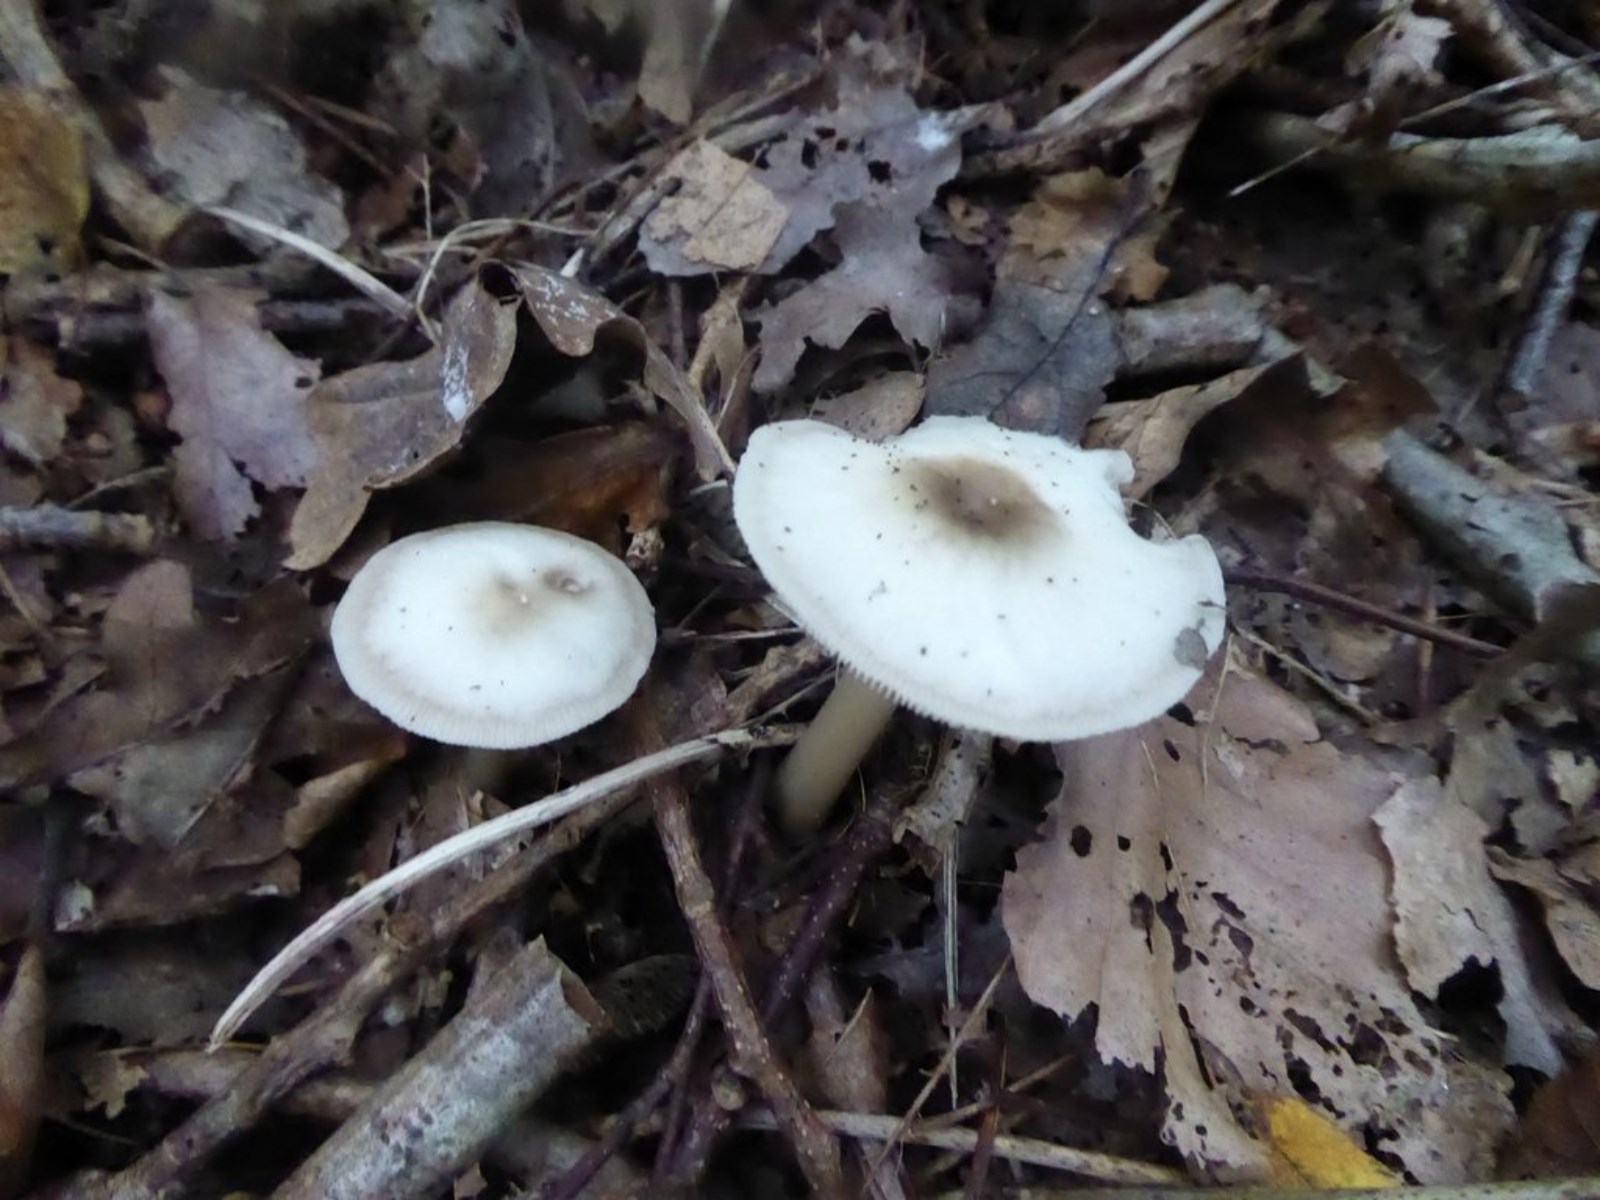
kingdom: Fungi
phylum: Basidiomycota
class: Agaricomycetes
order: Agaricales
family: Omphalotaceae
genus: Rhodocollybia
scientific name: Rhodocollybia asema
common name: horngrå fladhat
